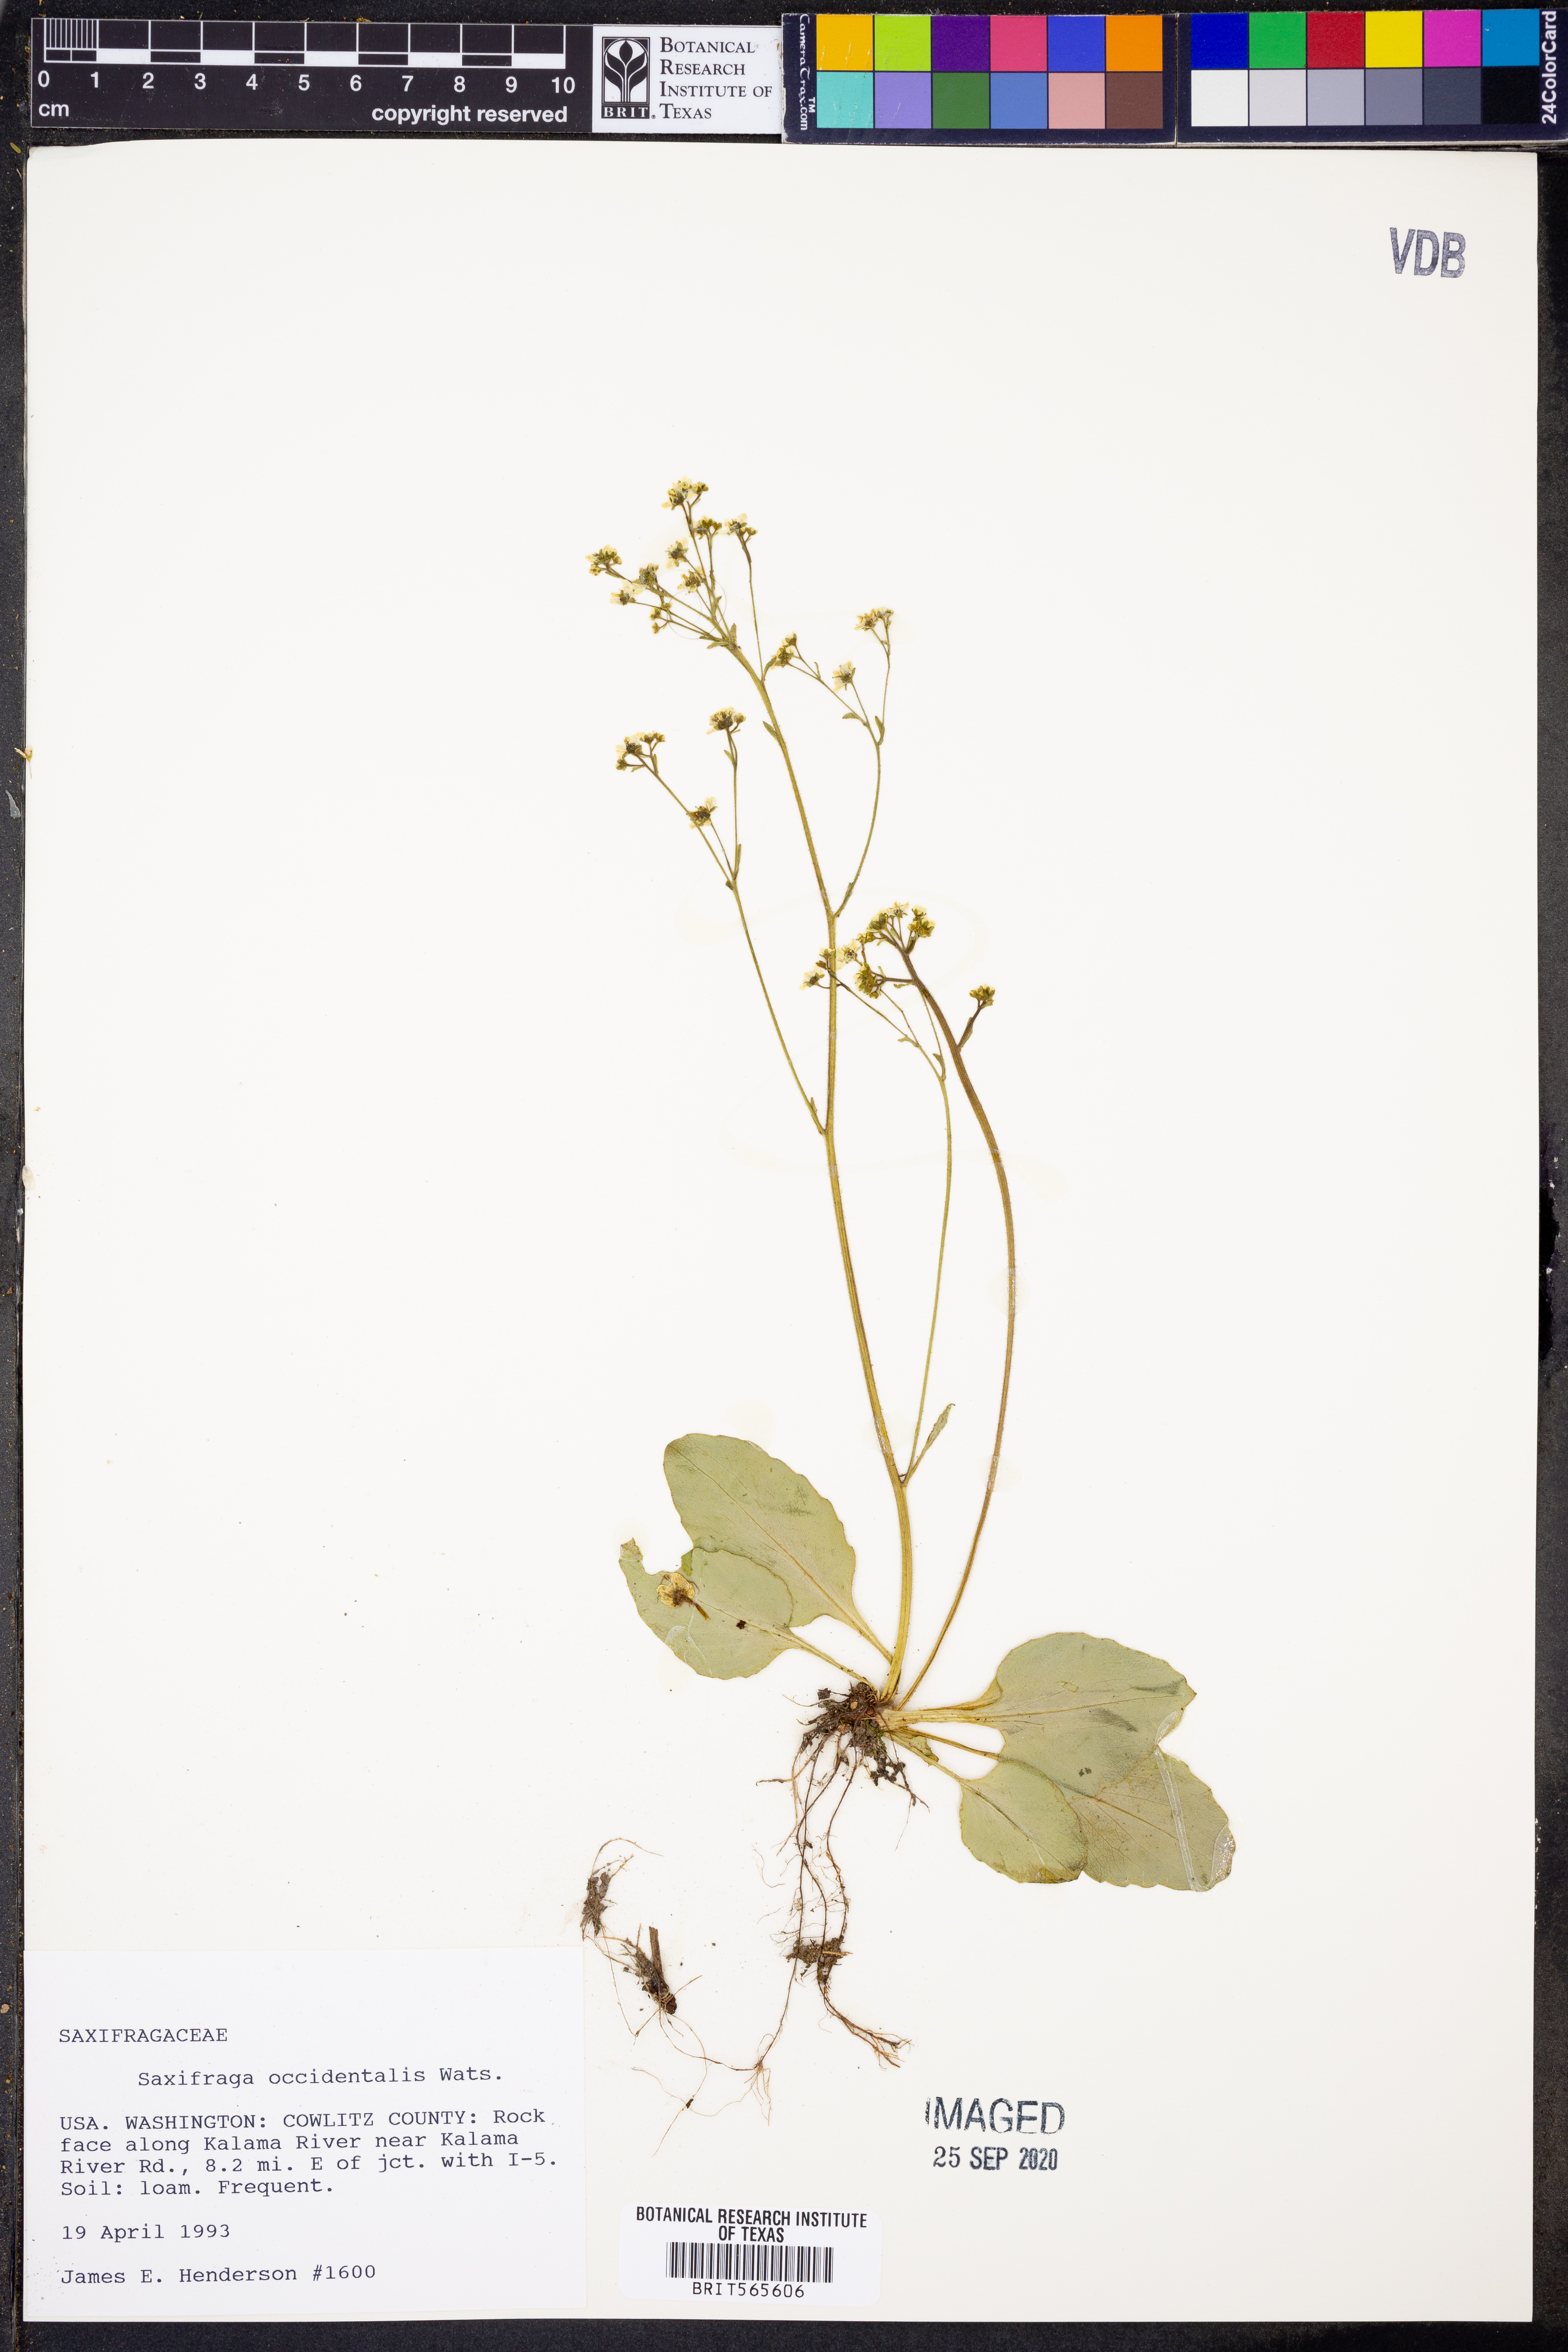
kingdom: Plantae
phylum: Tracheophyta
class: Magnoliopsida
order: Saxifragales
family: Saxifragaceae
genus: Micranthes
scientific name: Micranthes occidentalis
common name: Alberta saxifrage
